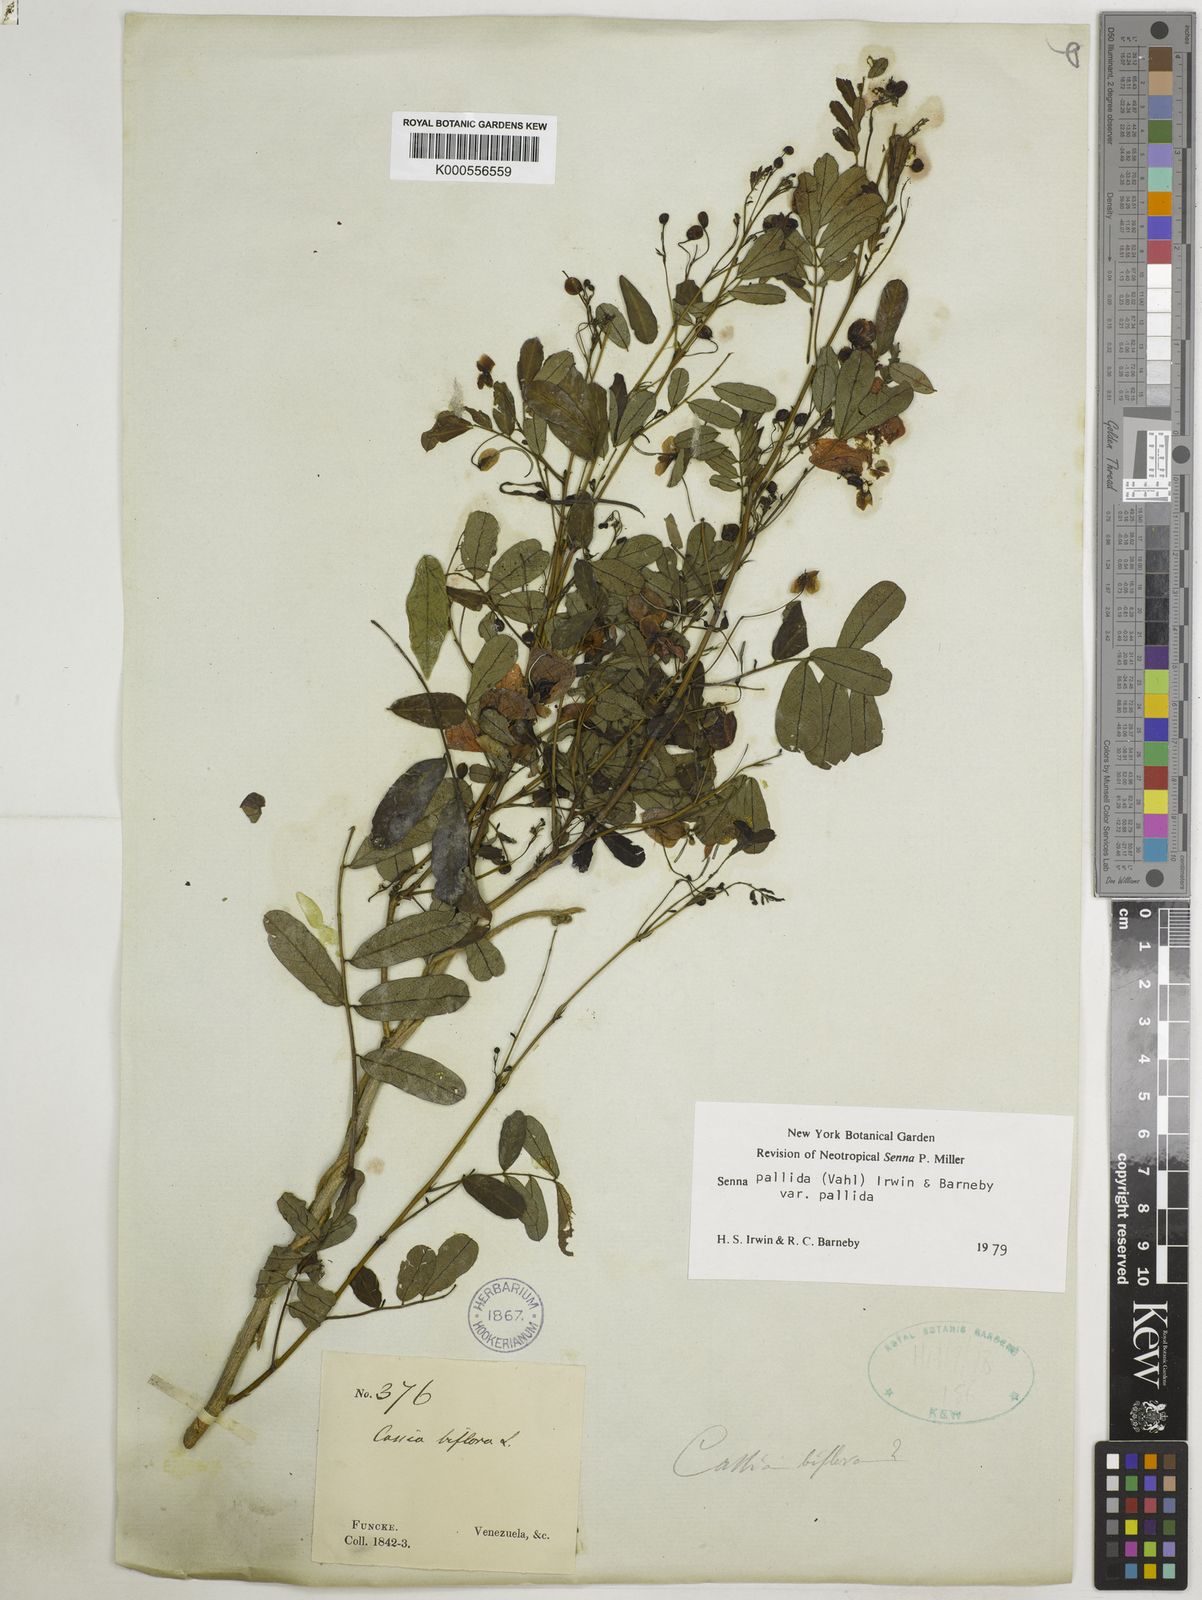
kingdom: Plantae
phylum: Tracheophyta
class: Magnoliopsida
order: Fabales
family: Fabaceae
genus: Senna
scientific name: Senna pallida
